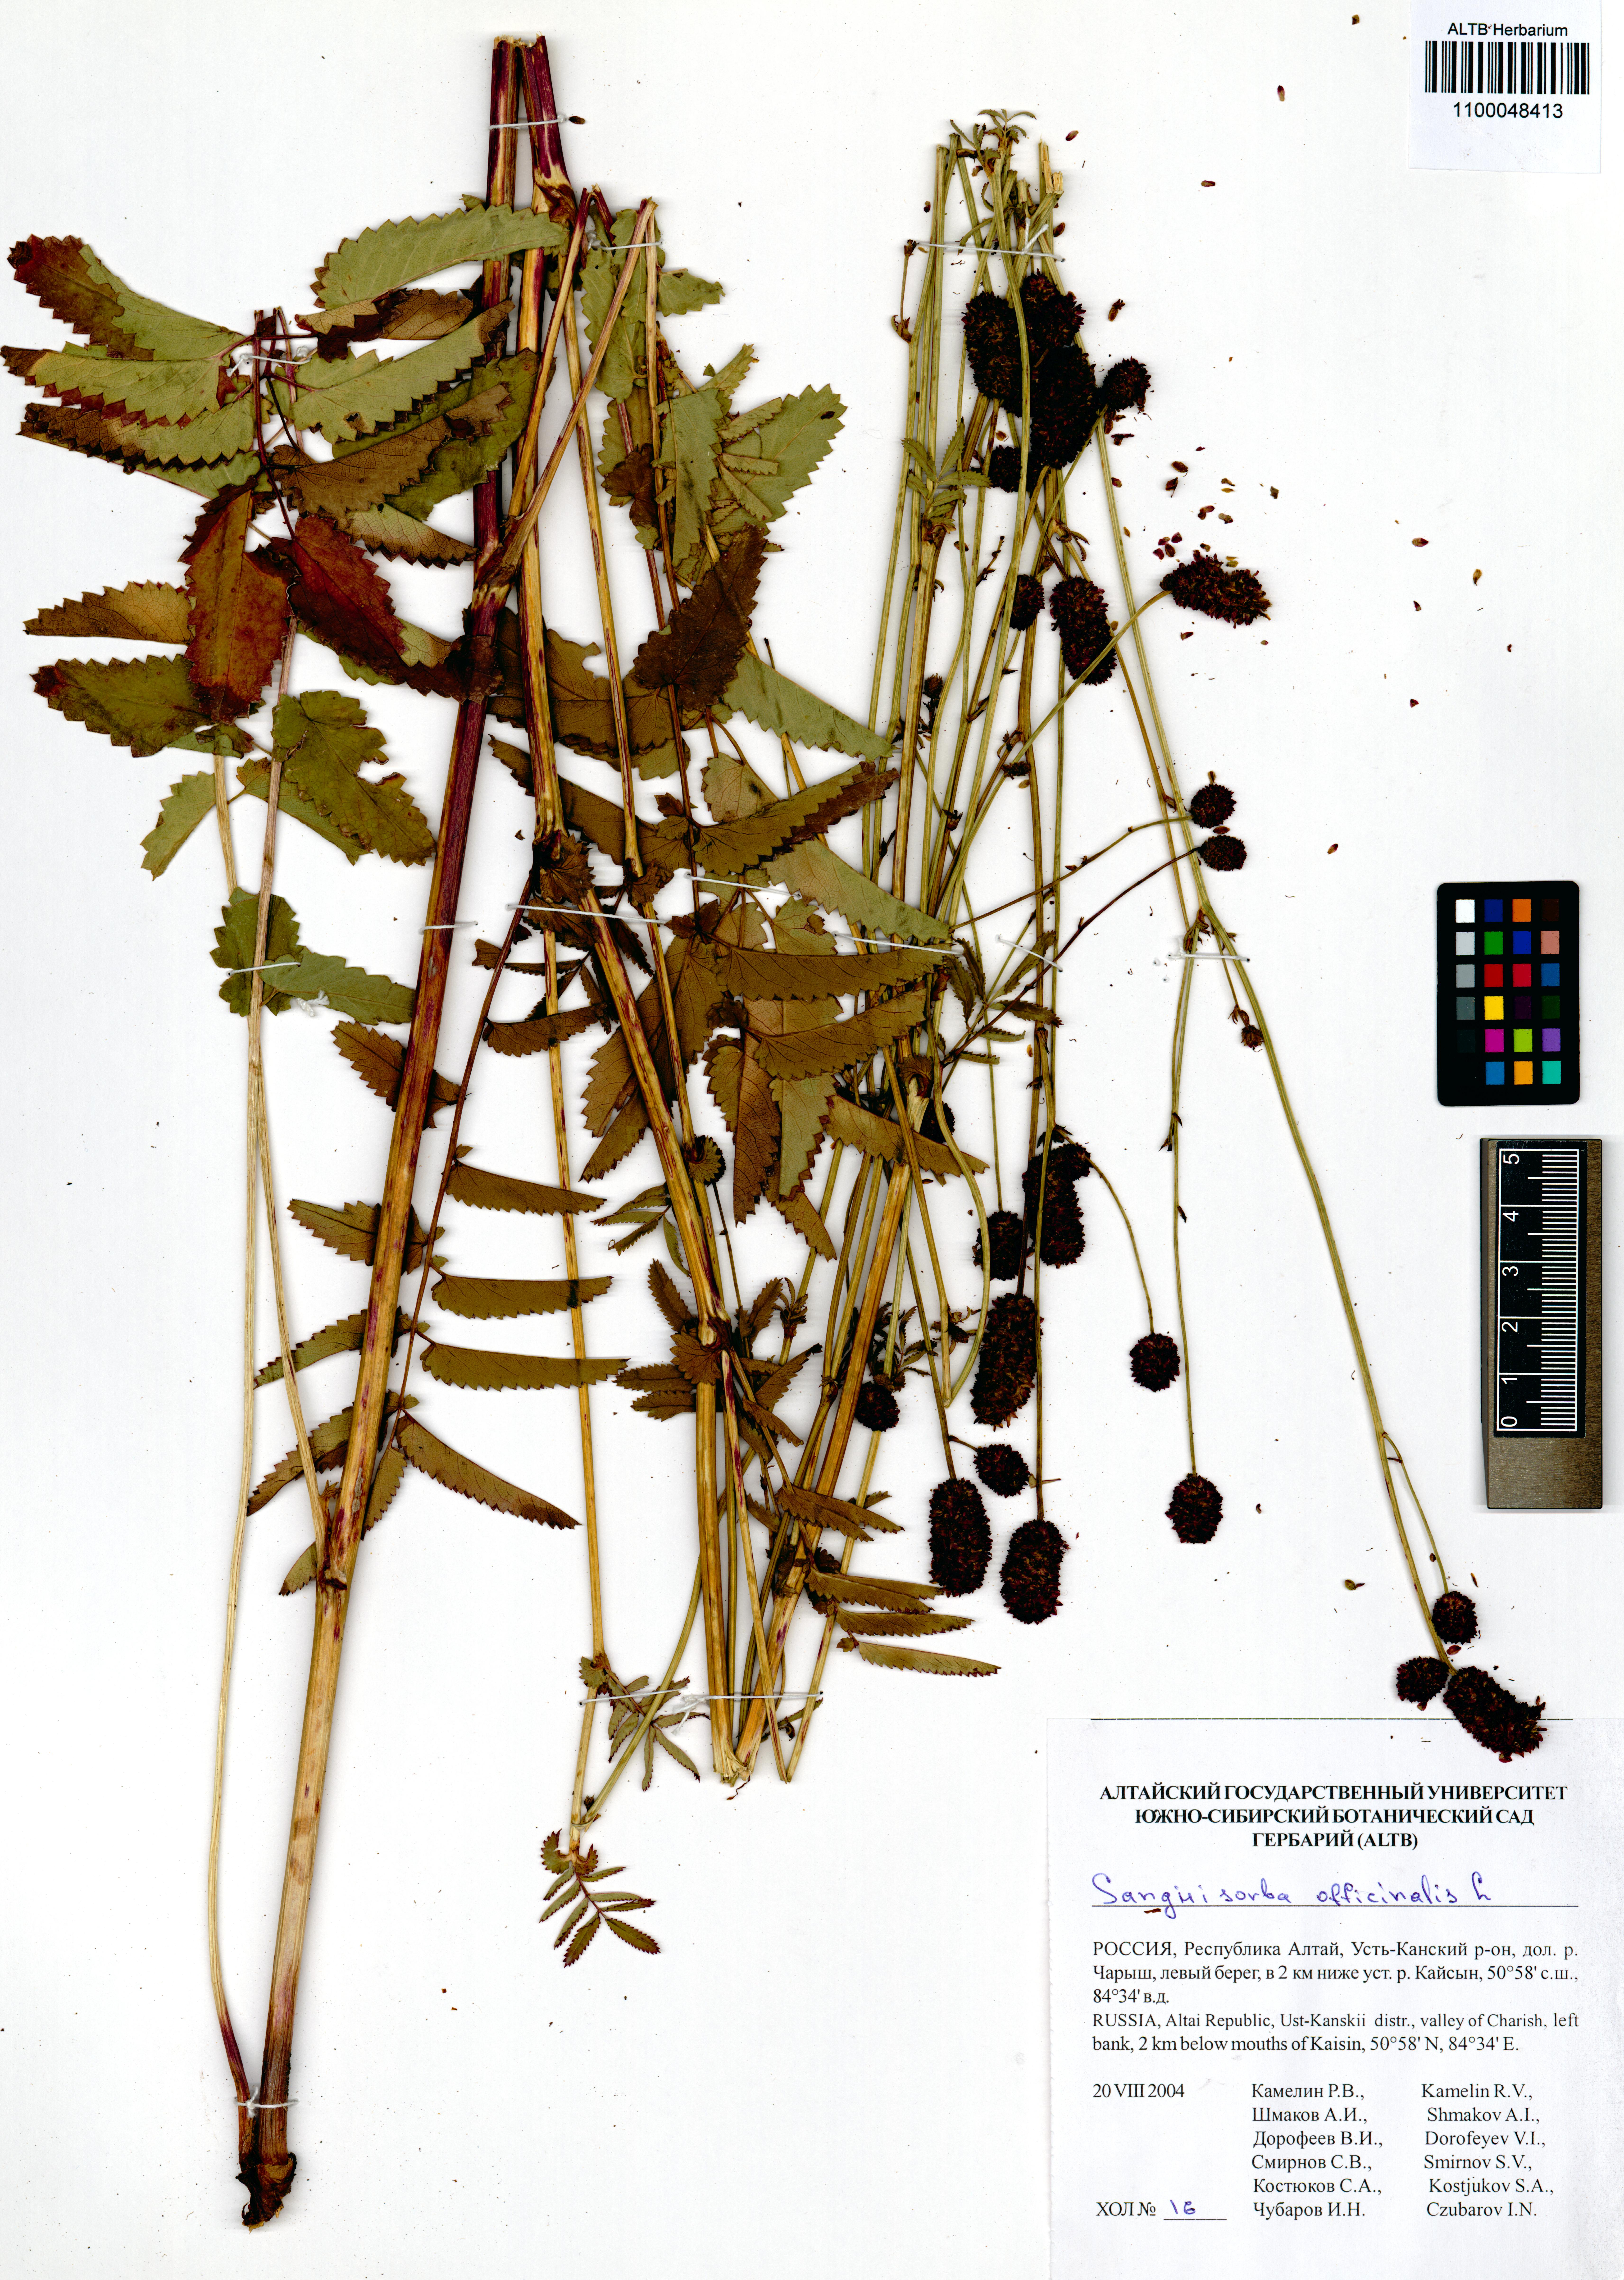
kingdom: Plantae
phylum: Tracheophyta
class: Magnoliopsida
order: Rosales
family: Rosaceae
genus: Sanguisorba
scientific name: Sanguisorba officinalis
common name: Great burnet
